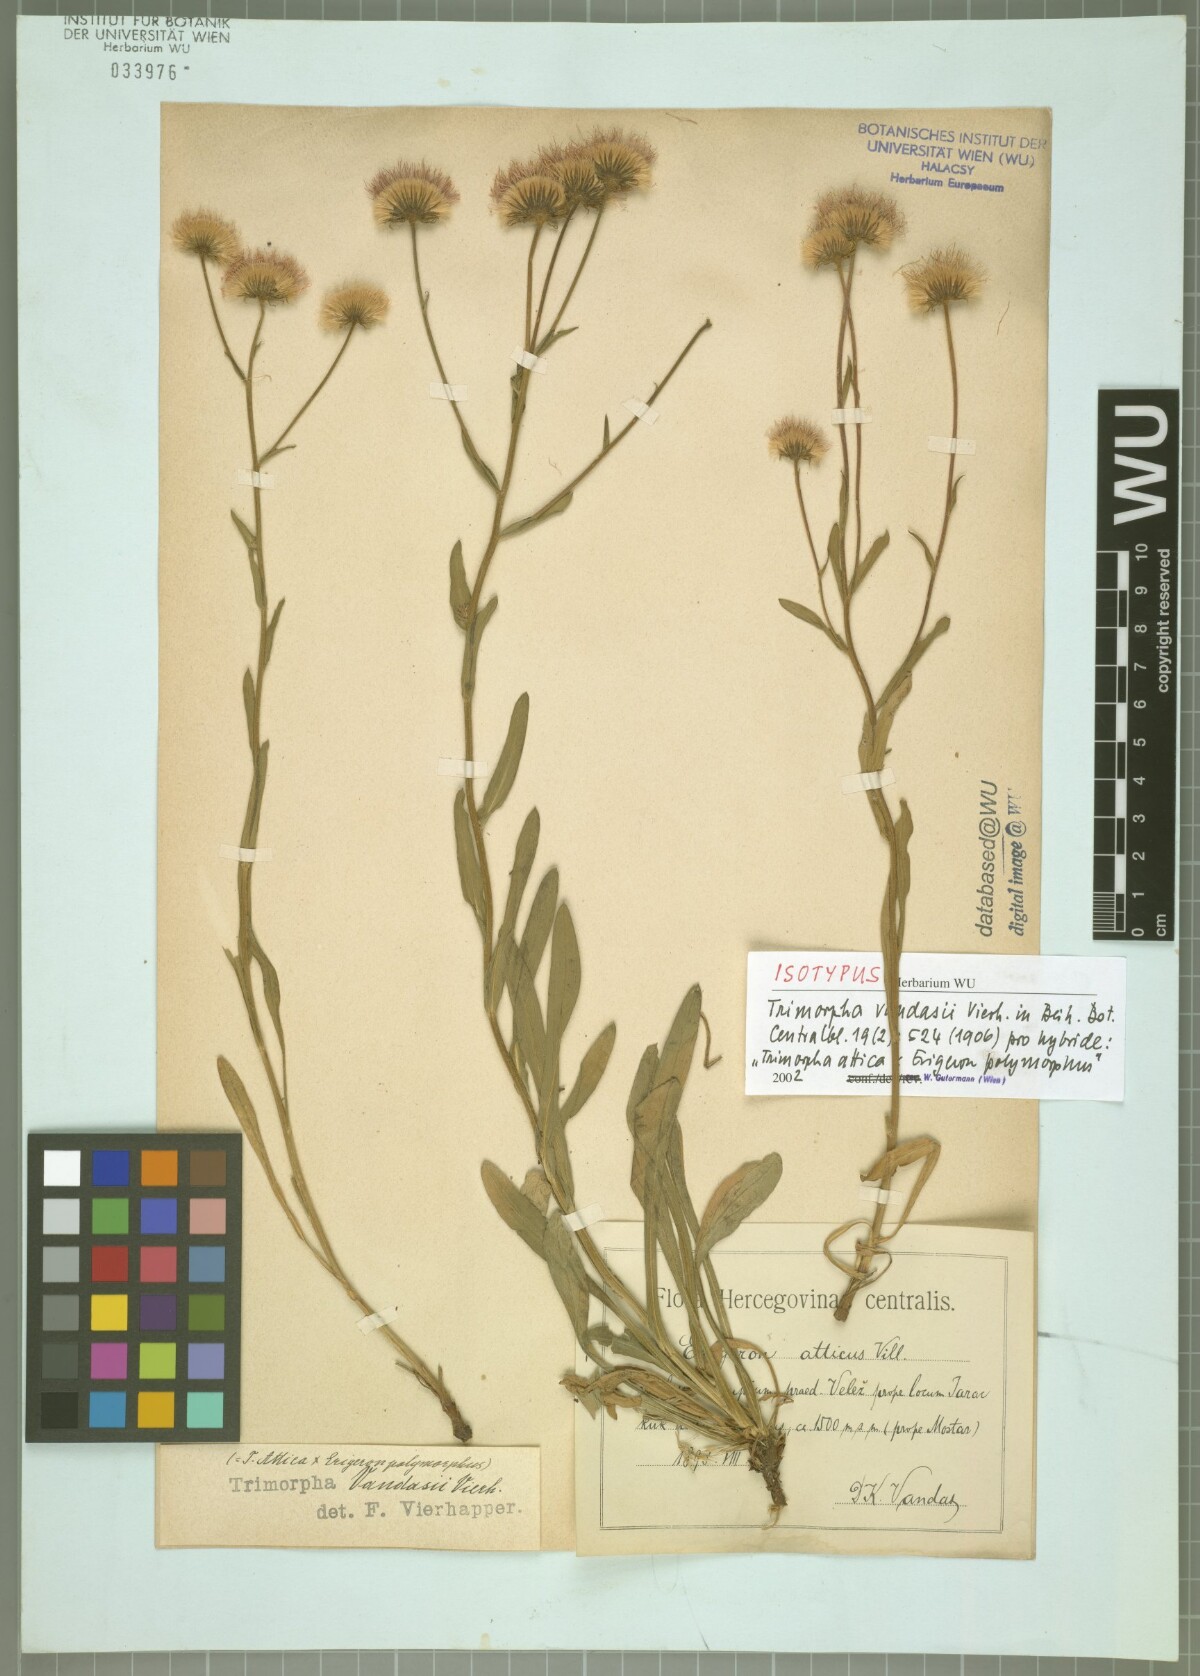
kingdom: Plantae
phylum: Tracheophyta
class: Magnoliopsida
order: Asterales
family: Asteraceae
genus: Erigeron
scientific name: Erigeron Trimorpha vandasii
